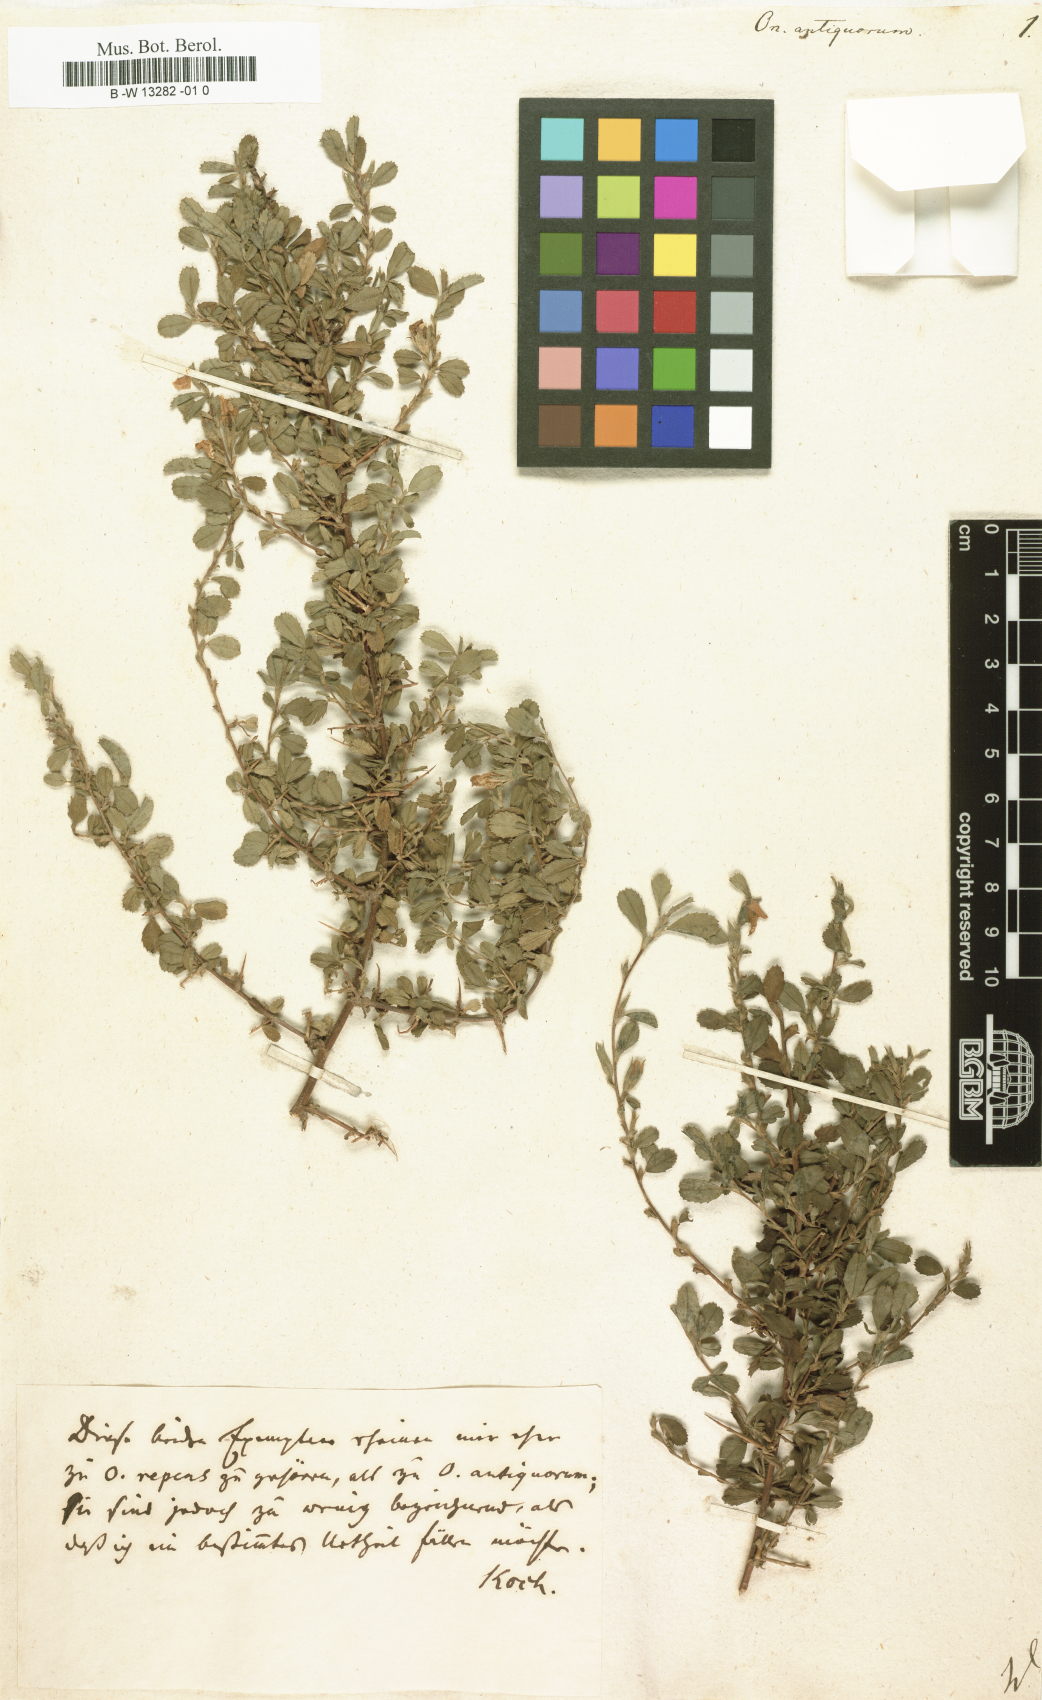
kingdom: Plantae
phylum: Tracheophyta
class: Magnoliopsida
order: Fabales
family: Fabaceae
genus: Ononis
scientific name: Ononis antiquorum
